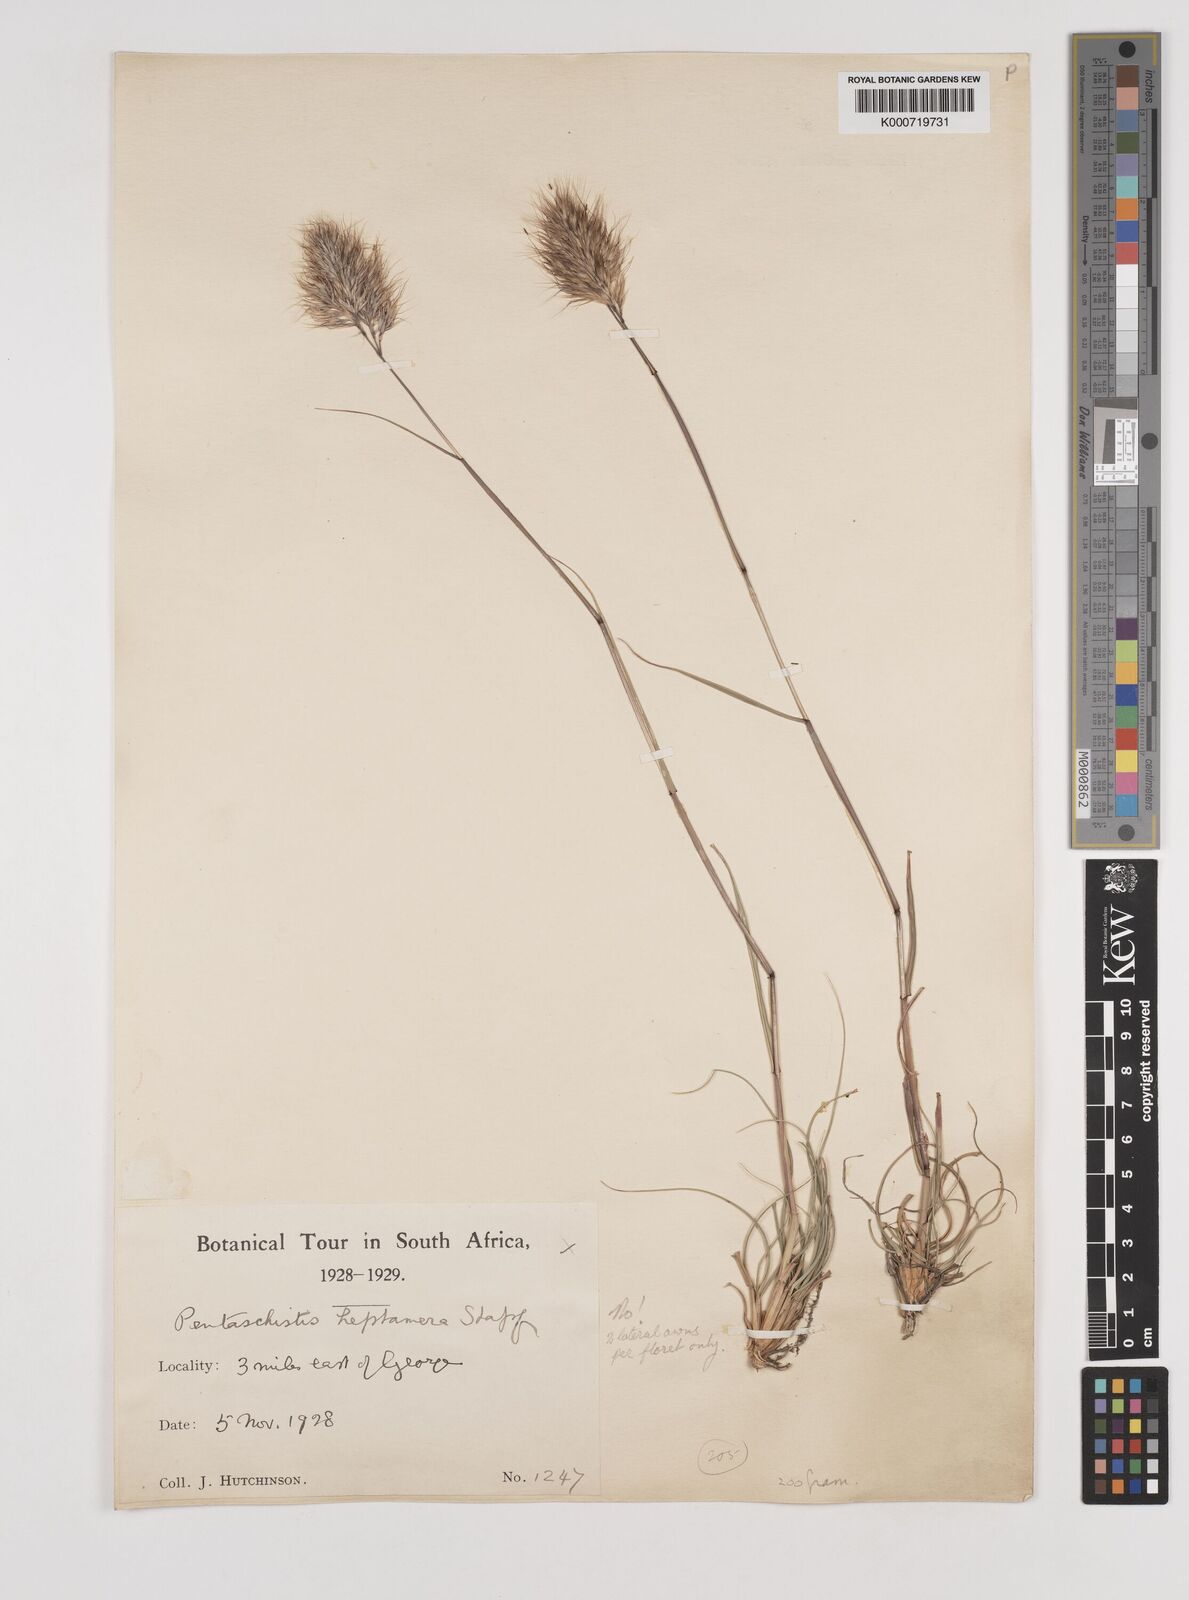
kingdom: Plantae
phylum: Tracheophyta
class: Liliopsida
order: Poales
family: Poaceae
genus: Pentameris
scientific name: Pentameris curvifolia
